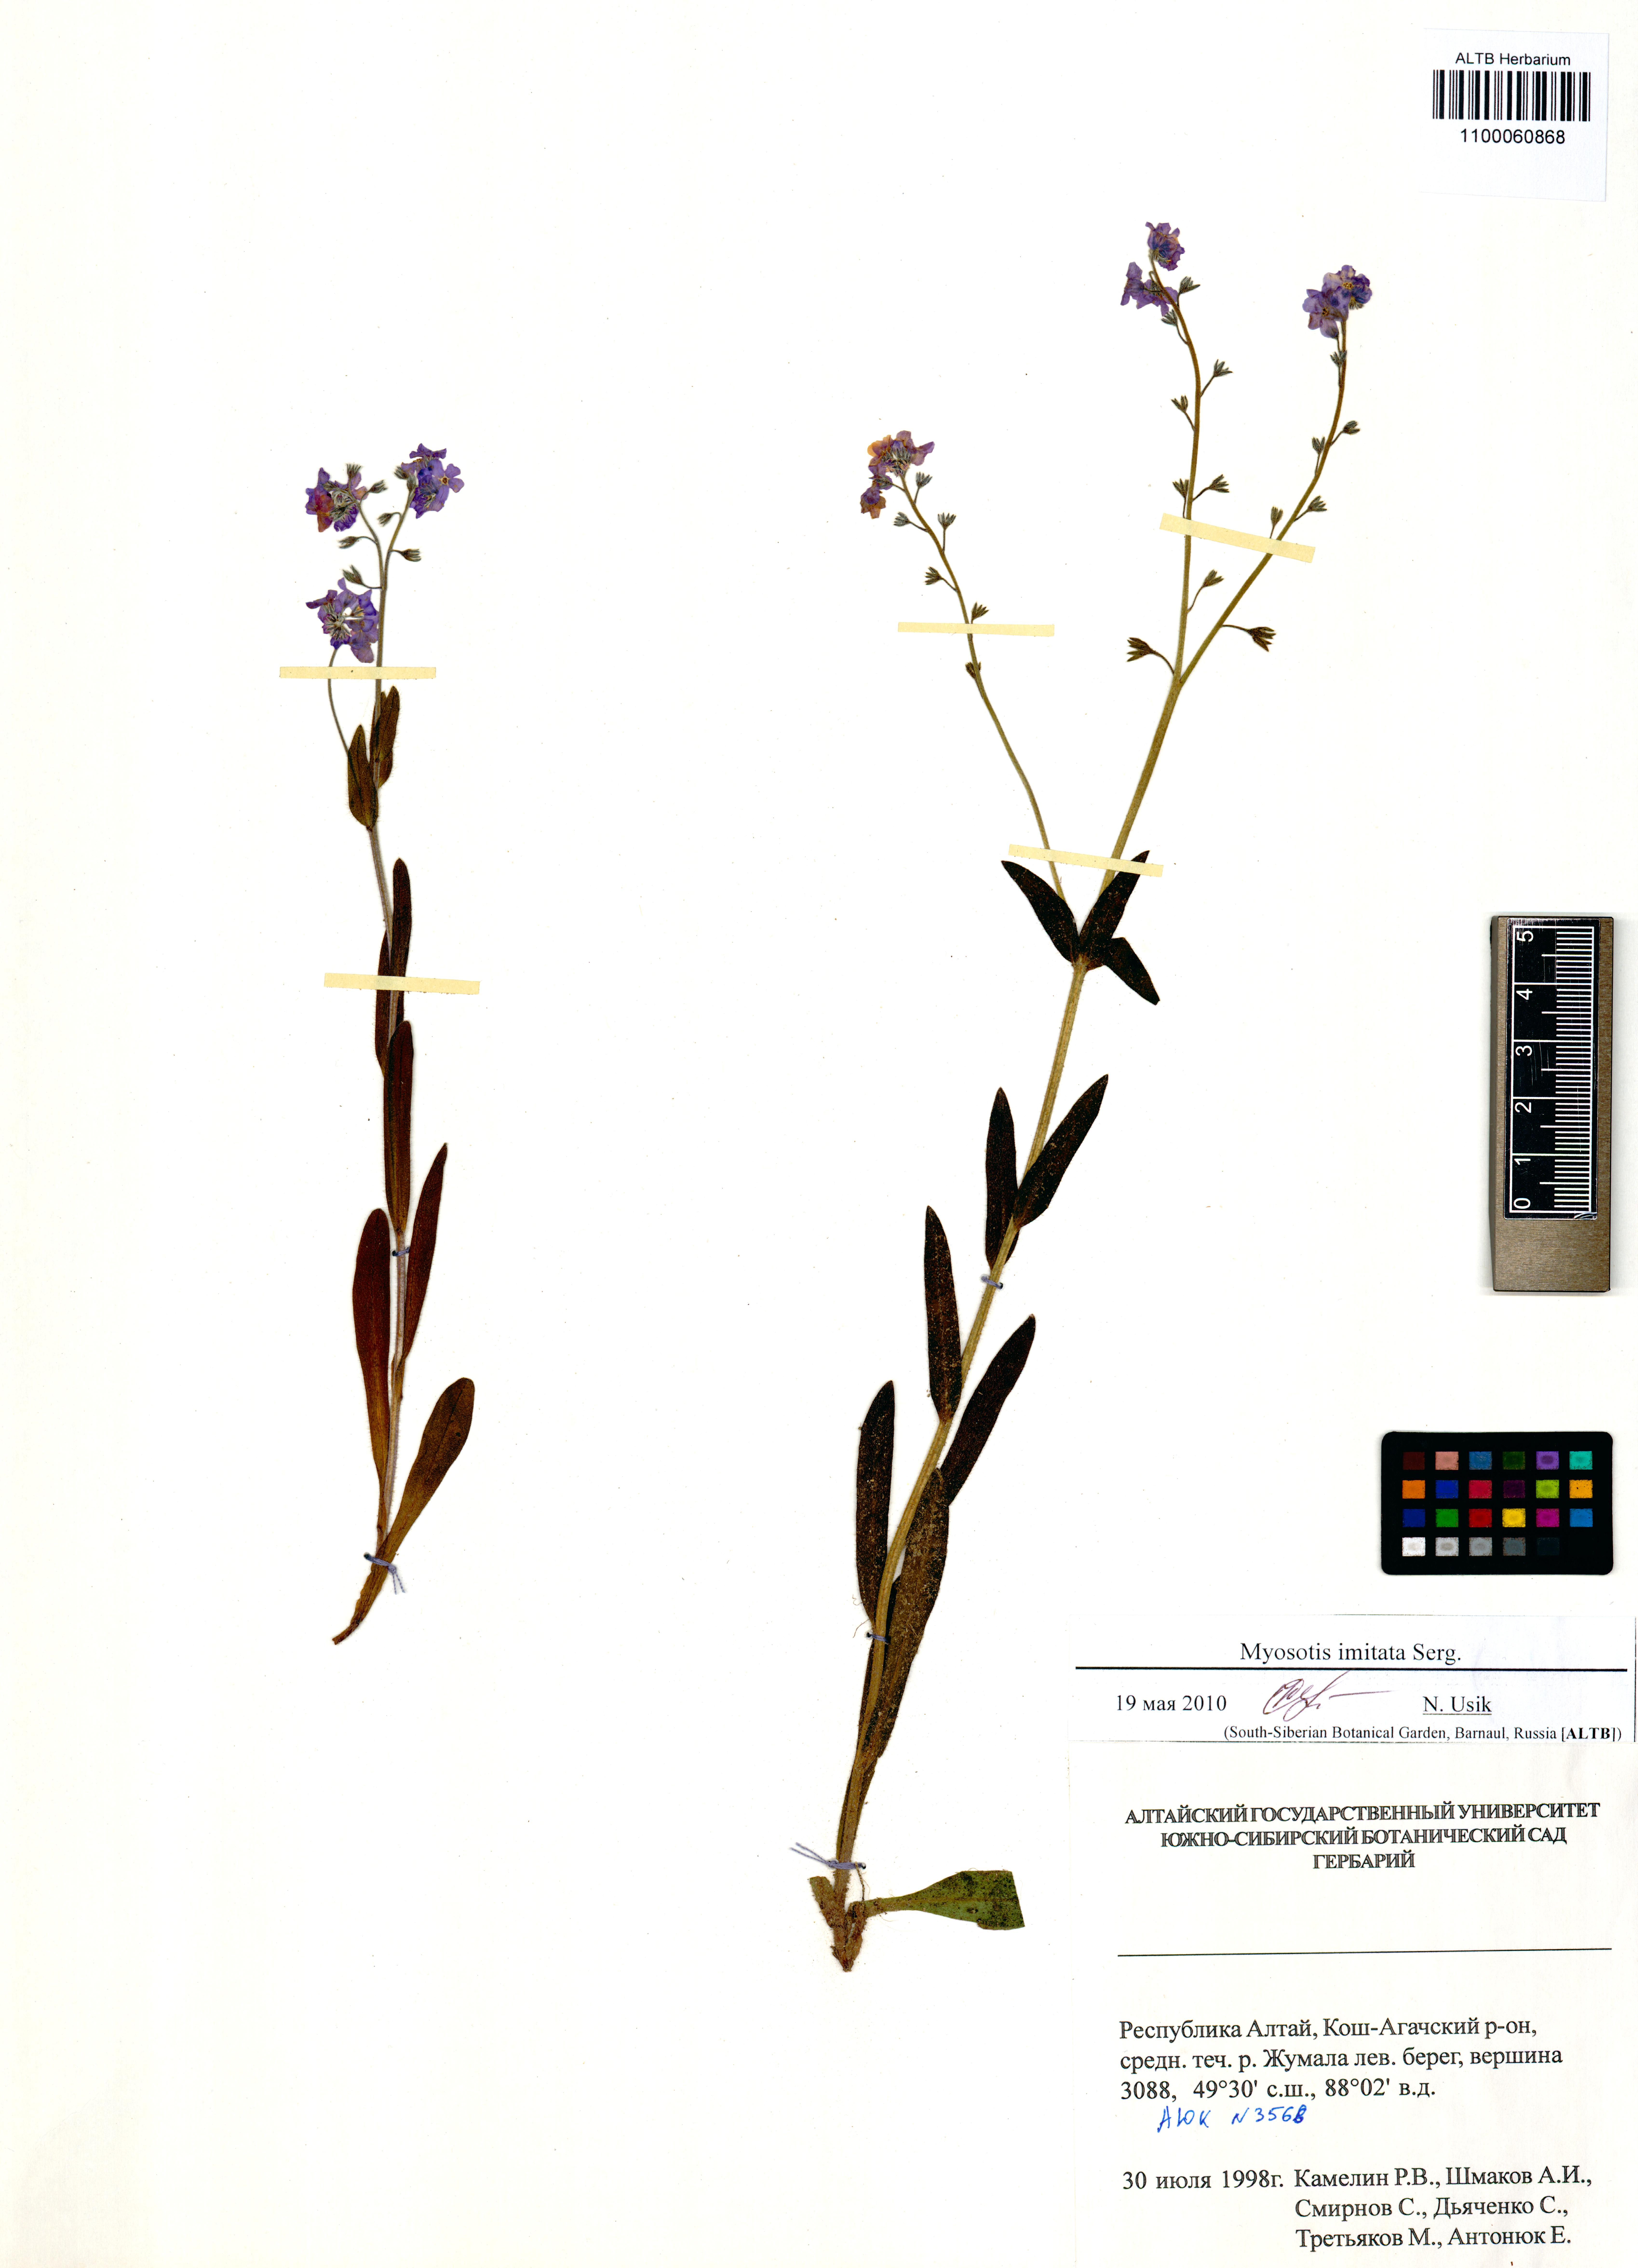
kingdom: Plantae
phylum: Tracheophyta
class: Magnoliopsida
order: Boraginales
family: Boraginaceae
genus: Myosotis
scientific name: Myosotis imitata
